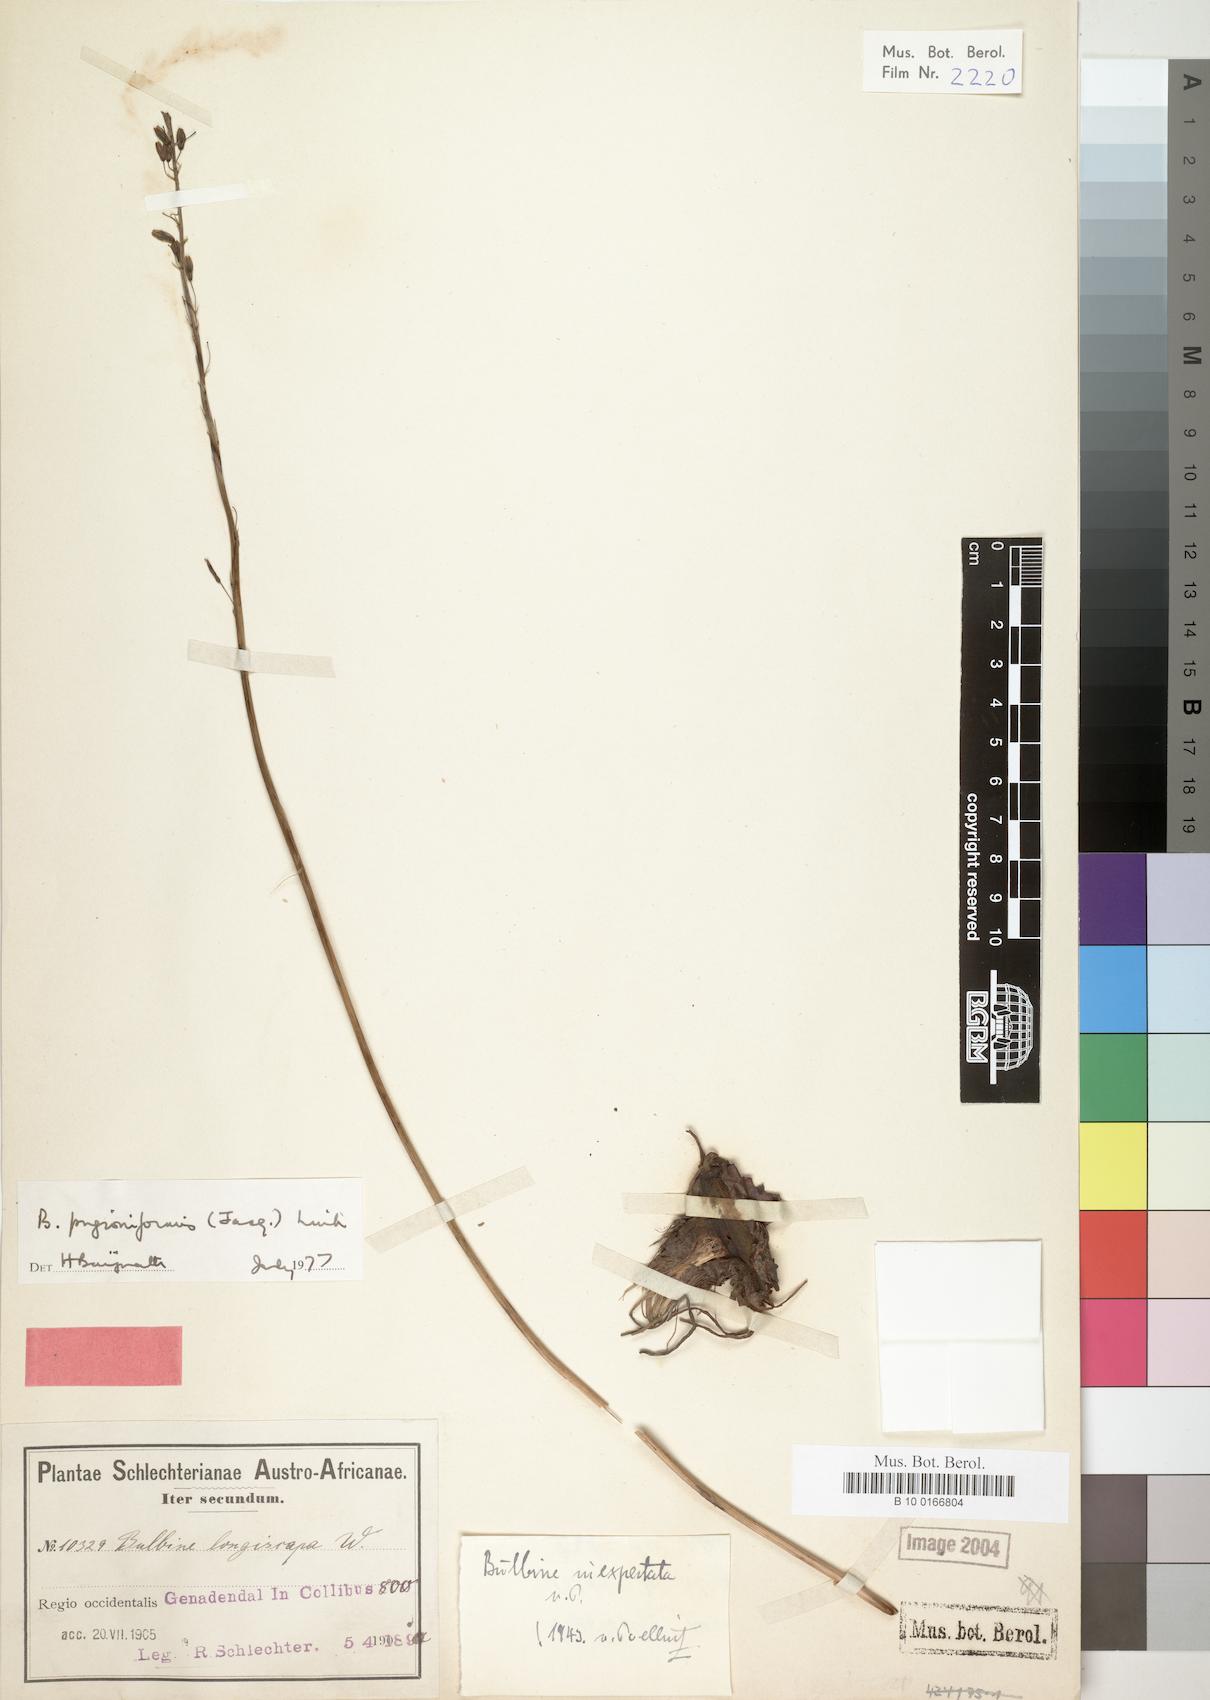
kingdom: Plantae
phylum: Tracheophyta
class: Liliopsida
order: Asparagales
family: Asphodelaceae
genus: Bulbine
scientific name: Bulbine cepacea
